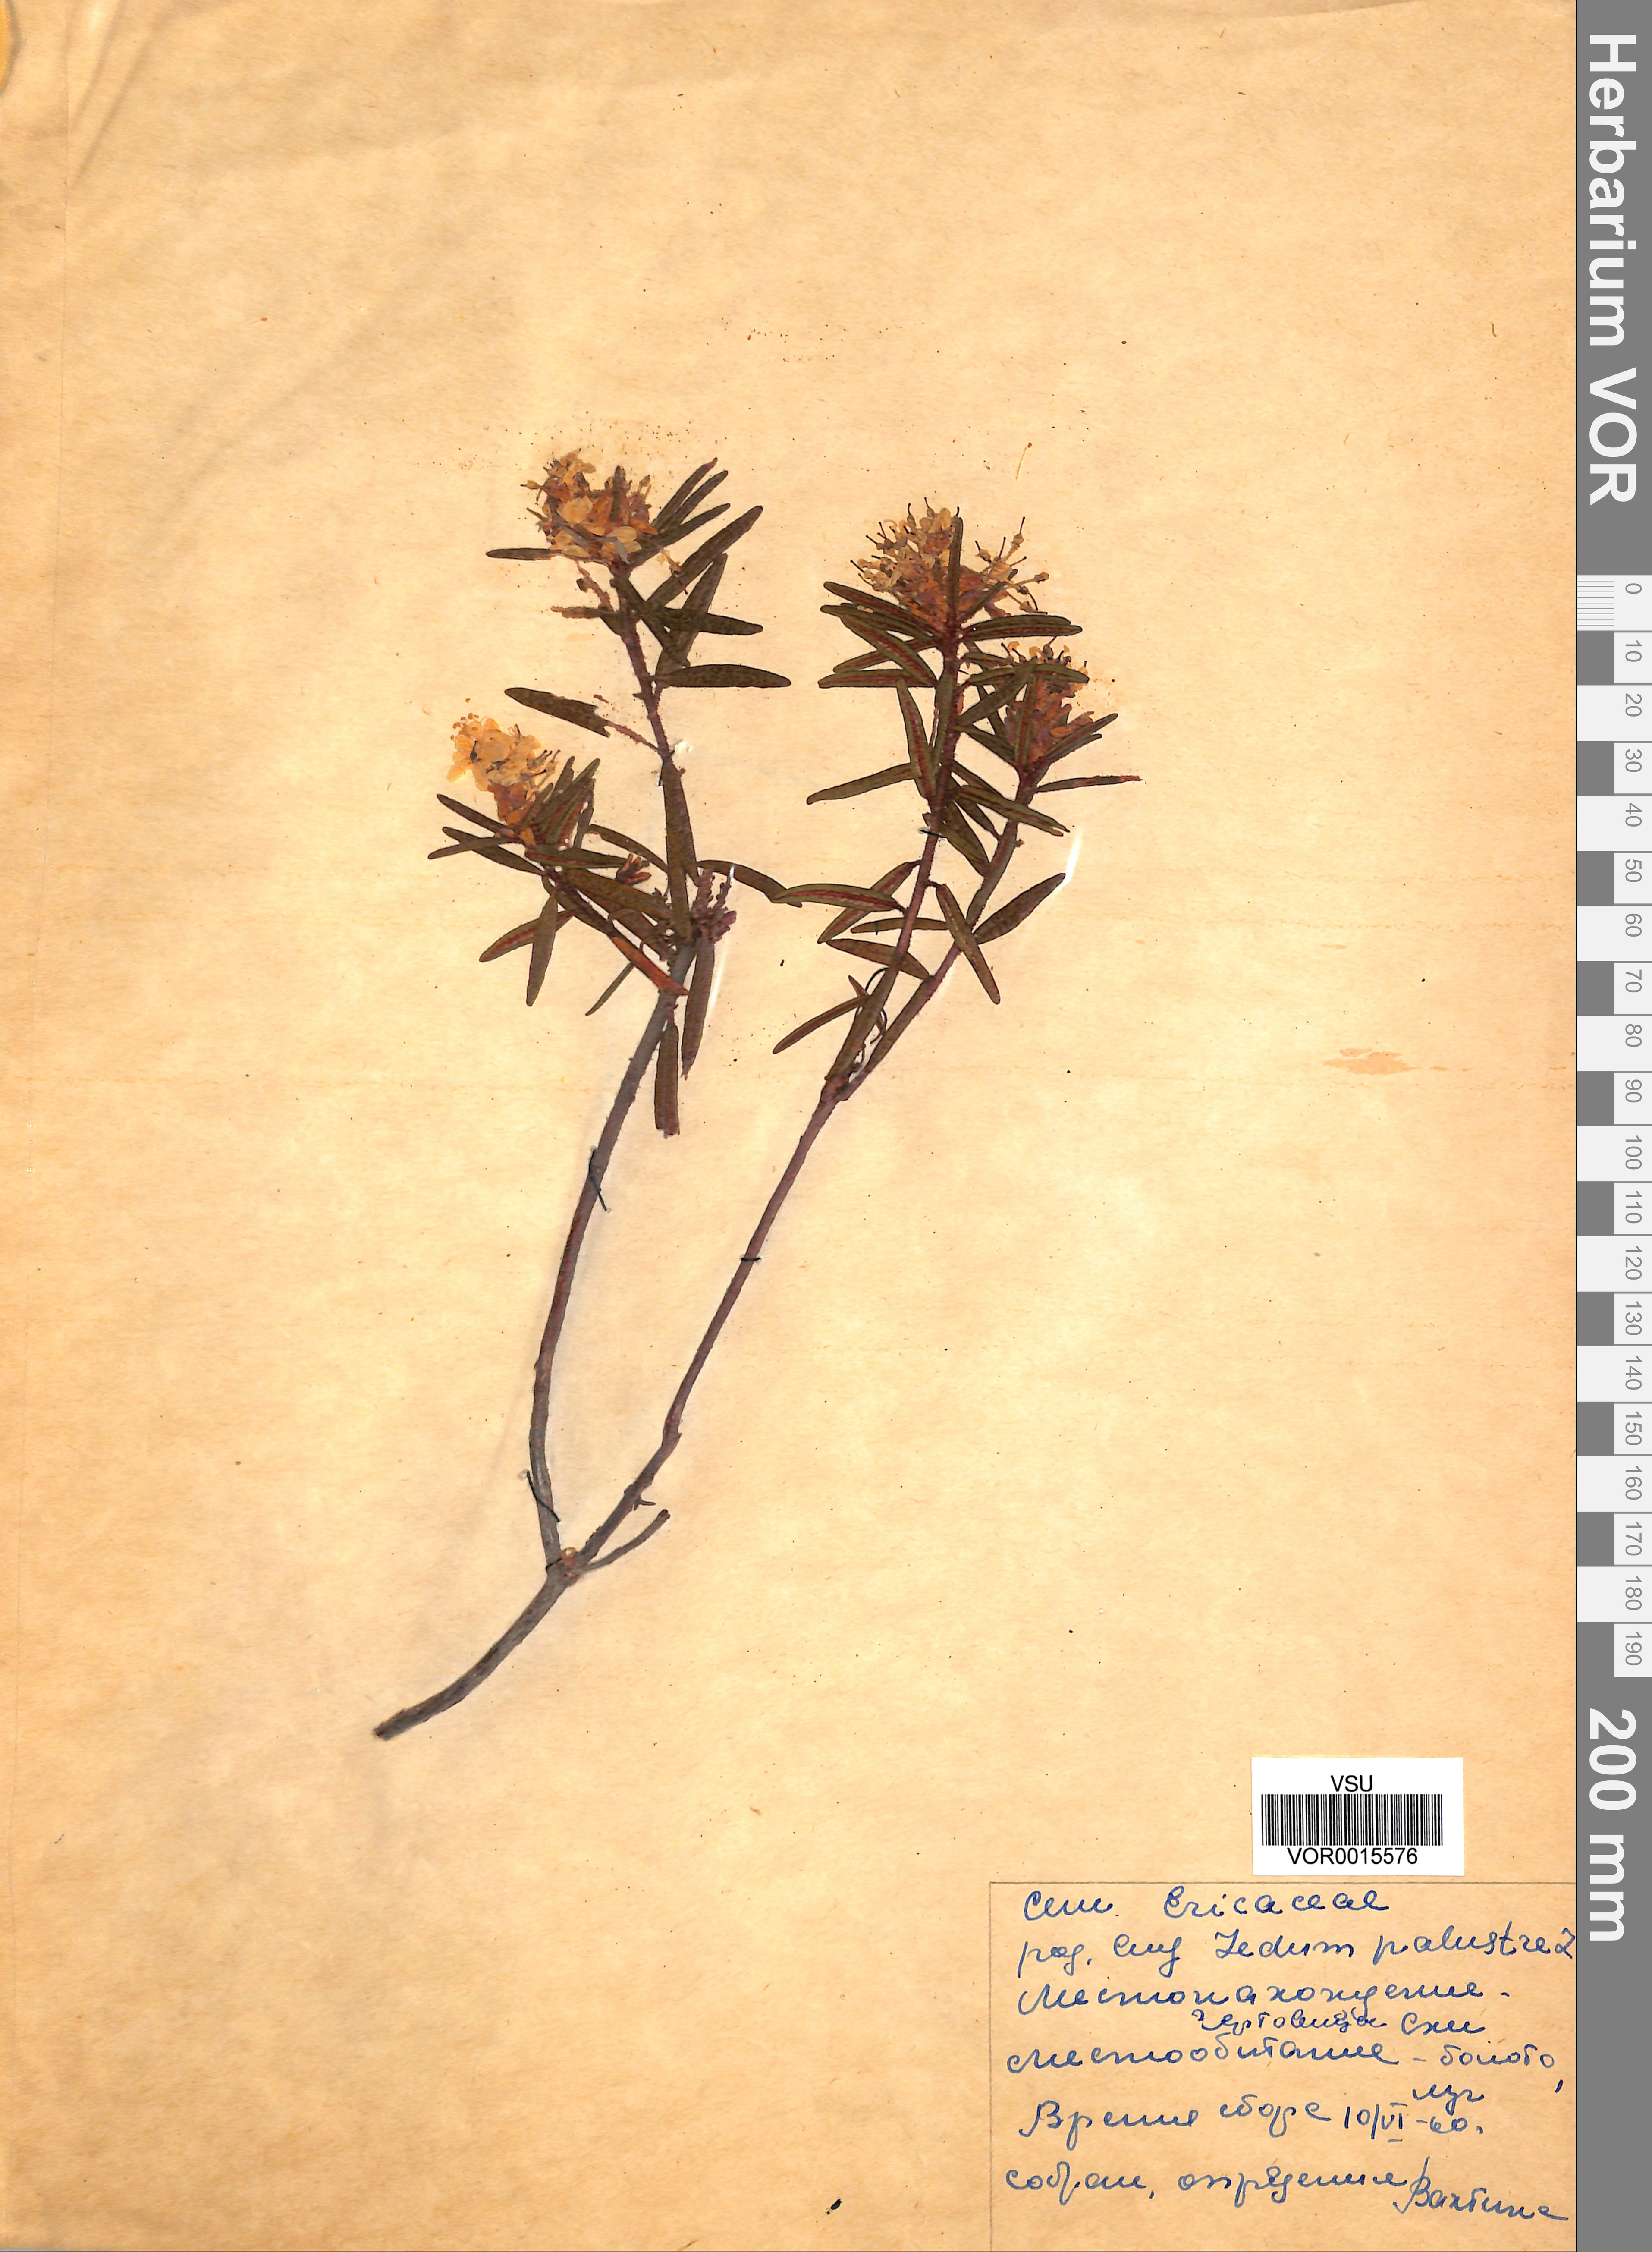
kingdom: Plantae
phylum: Tracheophyta
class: Magnoliopsida
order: Ericales
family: Ericaceae
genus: Rhododendron
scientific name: Rhododendron tomentosum
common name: Marsh labrador tea
